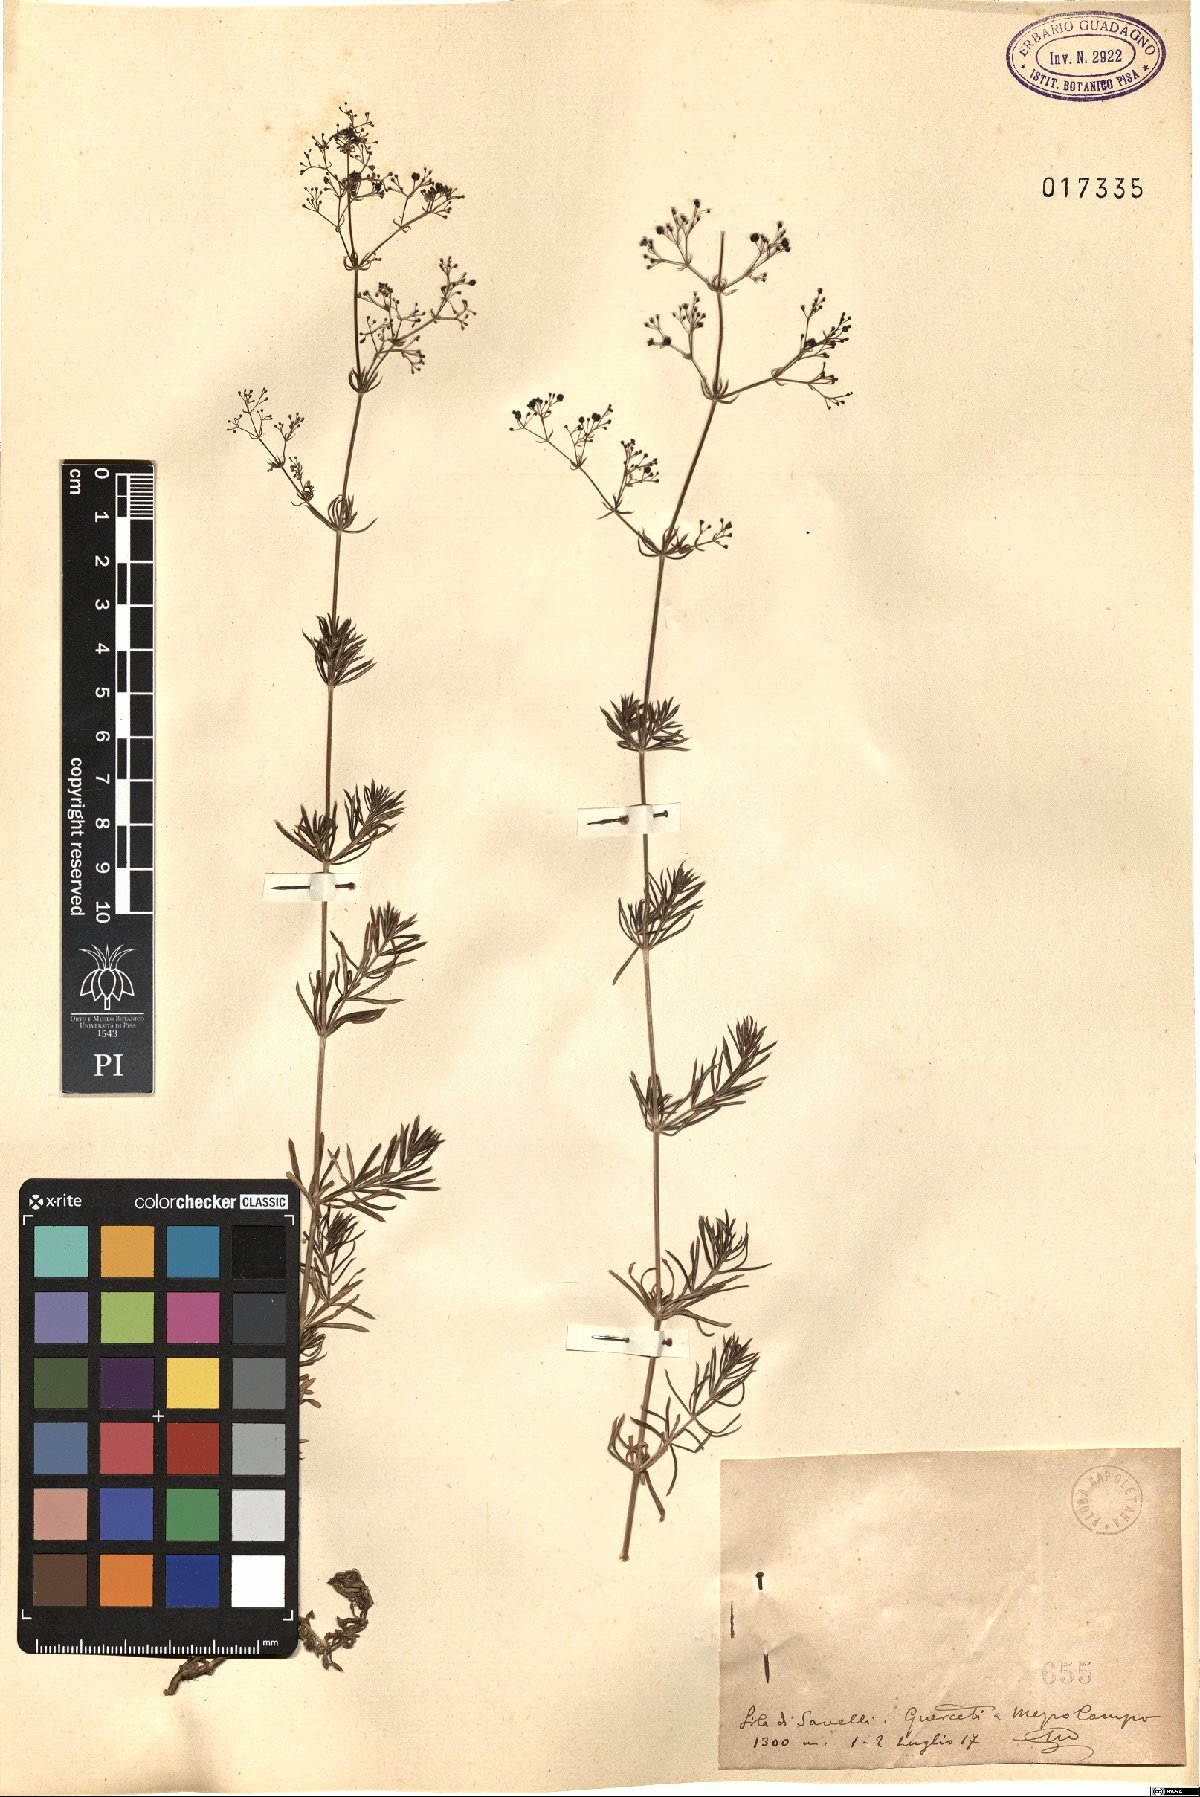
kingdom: Plantae
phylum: Tracheophyta
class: Magnoliopsida
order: Gentianales
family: Rubiaceae
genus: Galium
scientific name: Galium
